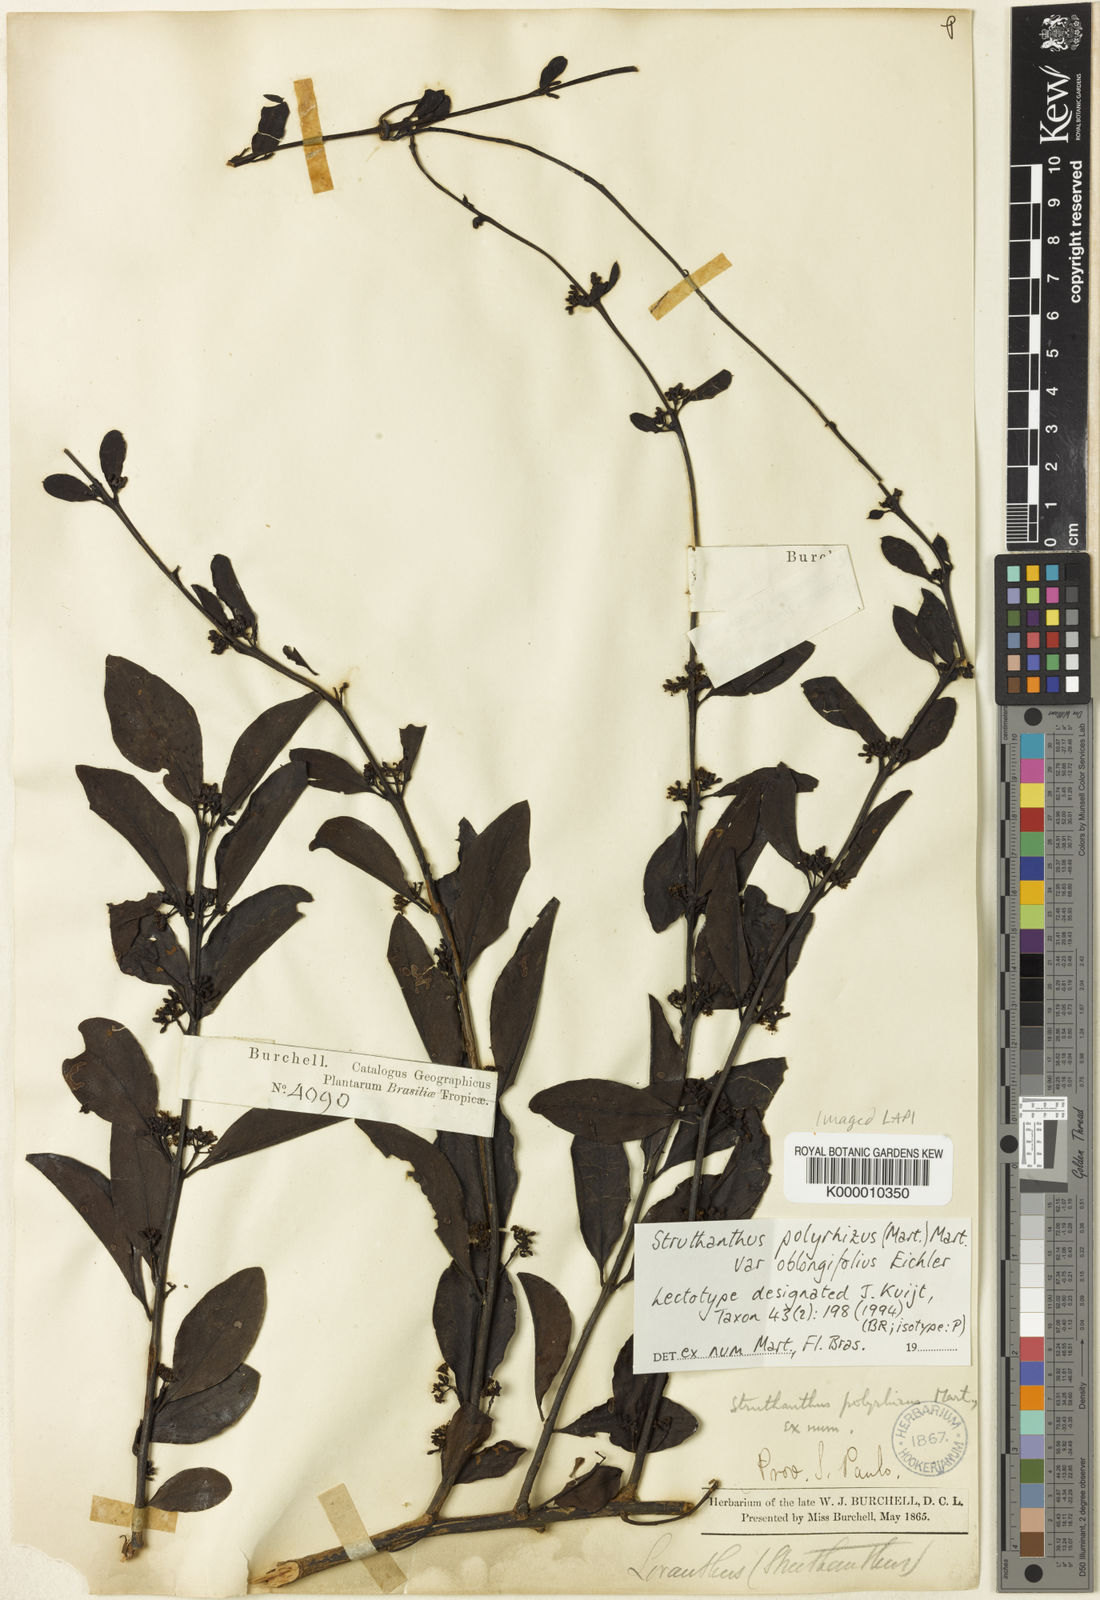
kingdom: Plantae
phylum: Tracheophyta
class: Magnoliopsida
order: Santalales
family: Loranthaceae
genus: Struthanthus
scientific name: Struthanthus
